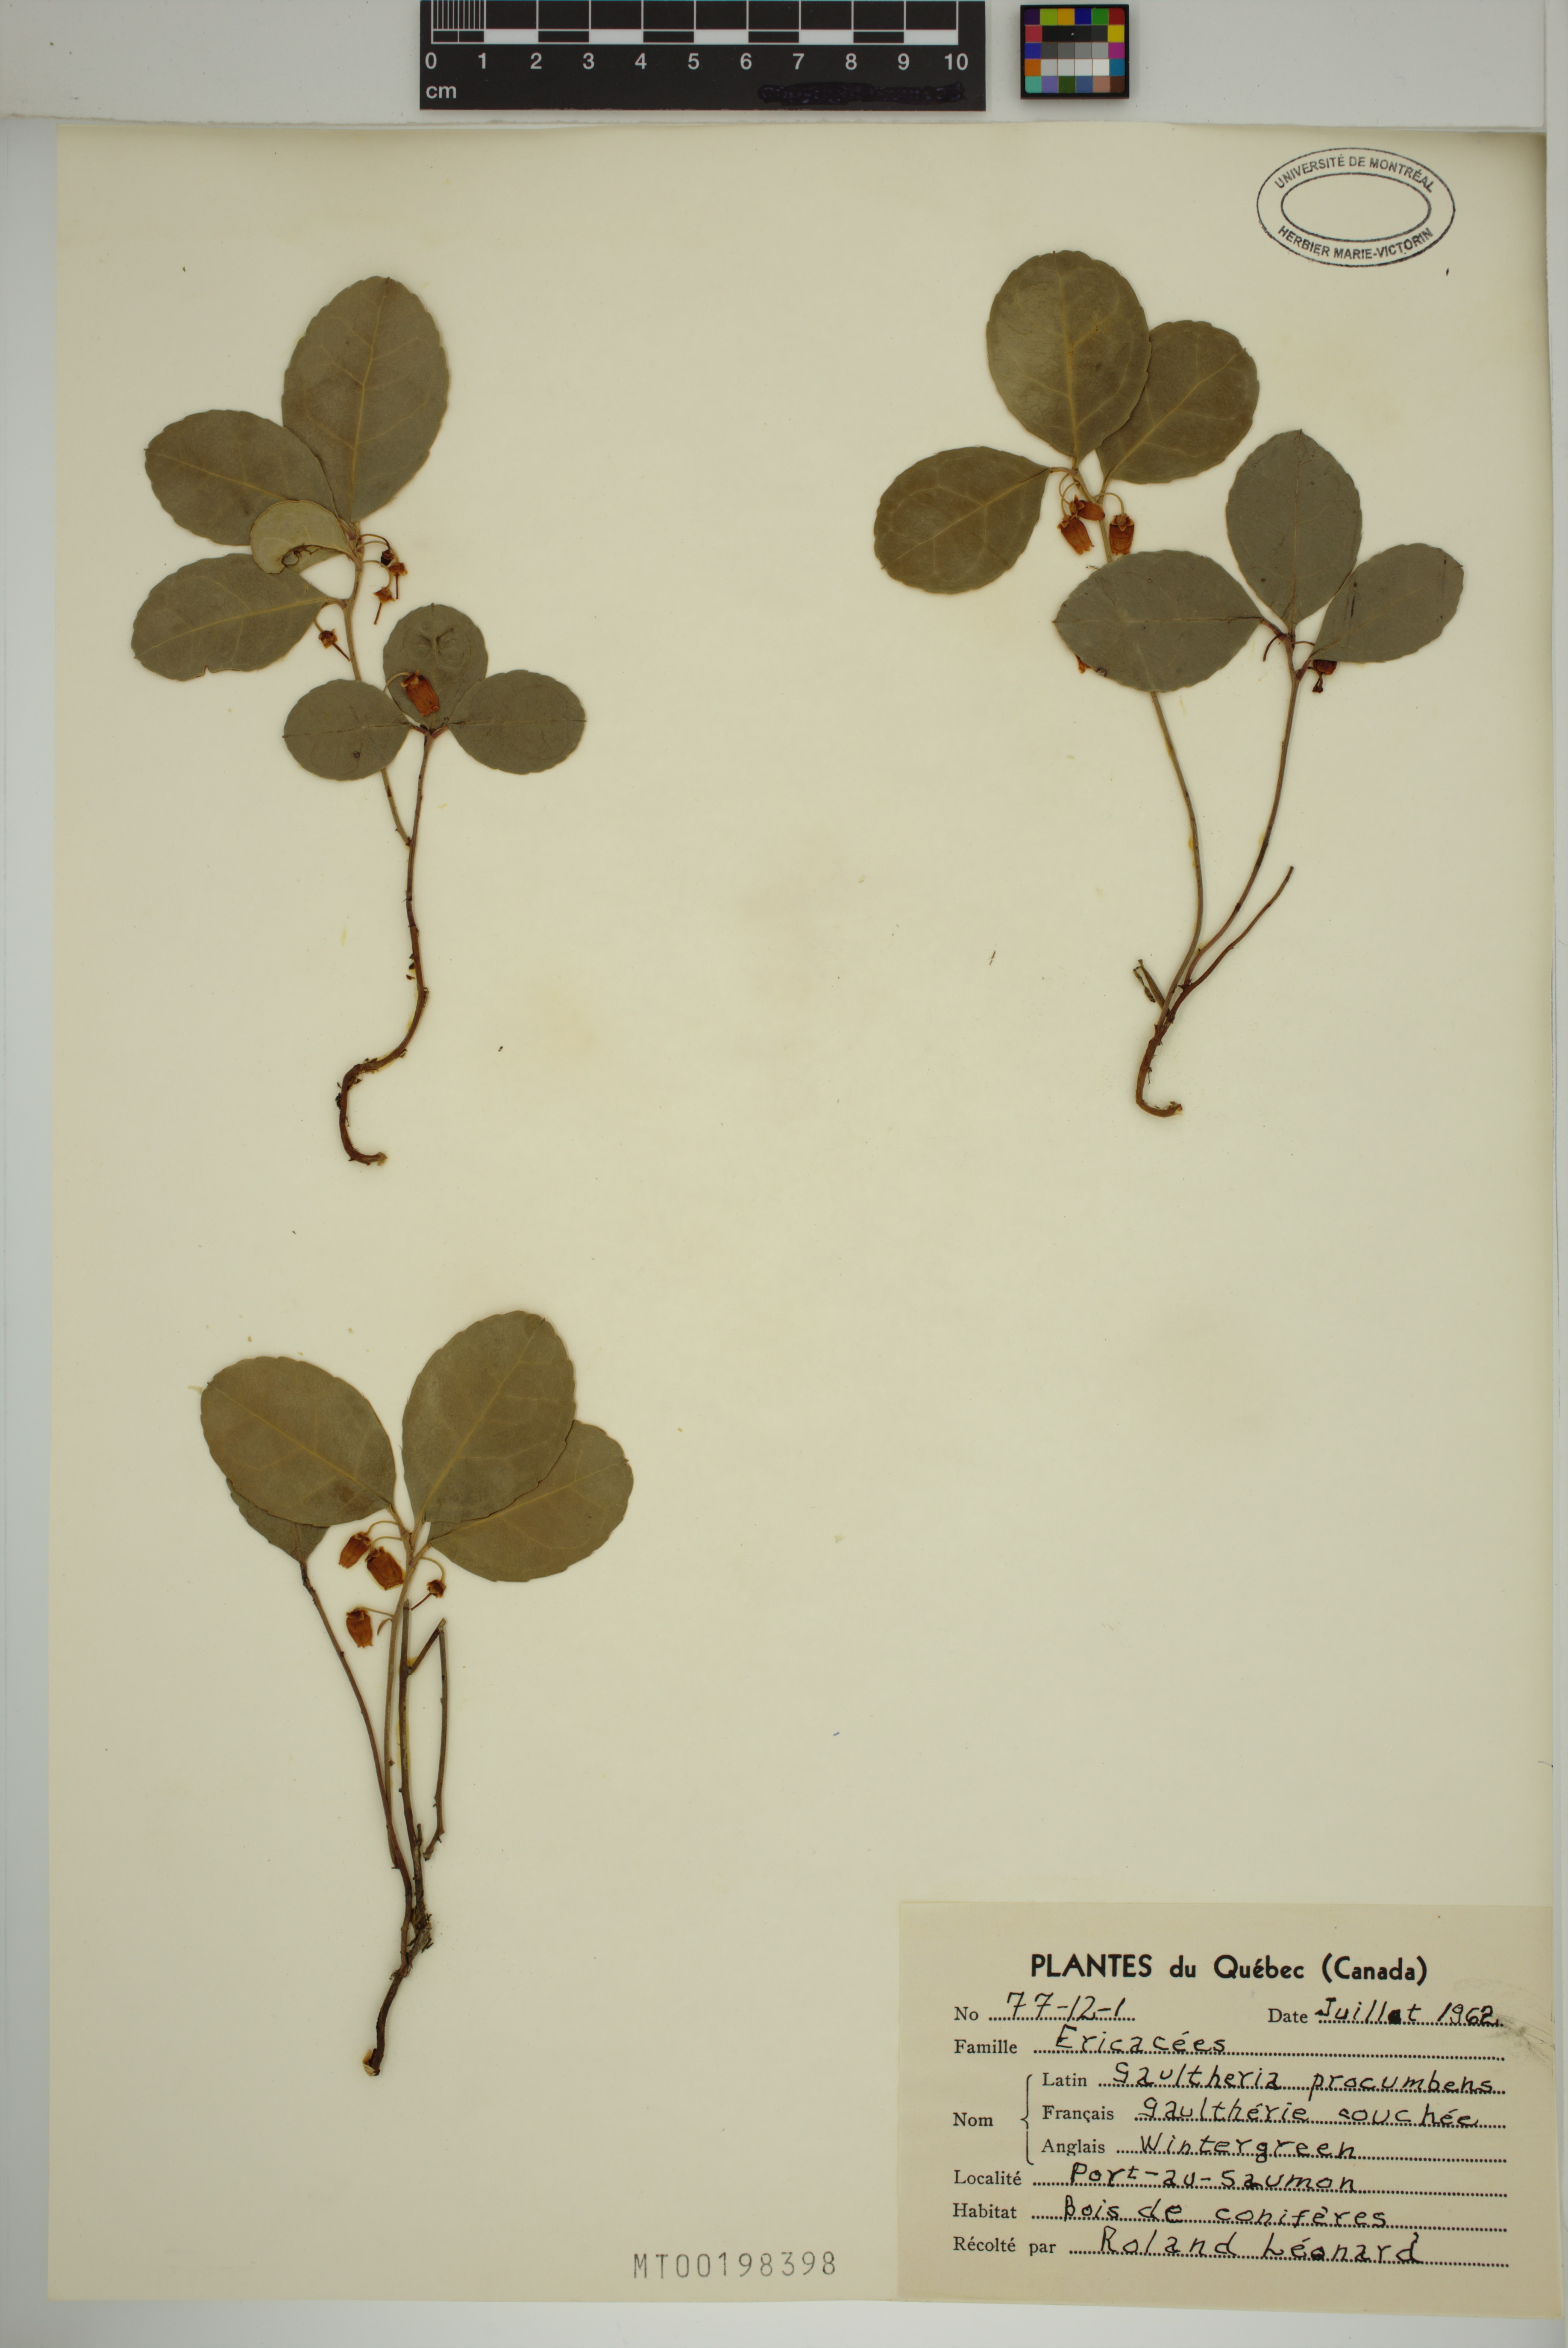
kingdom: Plantae
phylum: Tracheophyta
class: Magnoliopsida
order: Ericales
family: Ericaceae
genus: Gaultheria
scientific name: Gaultheria procumbens
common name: Checkerberry
